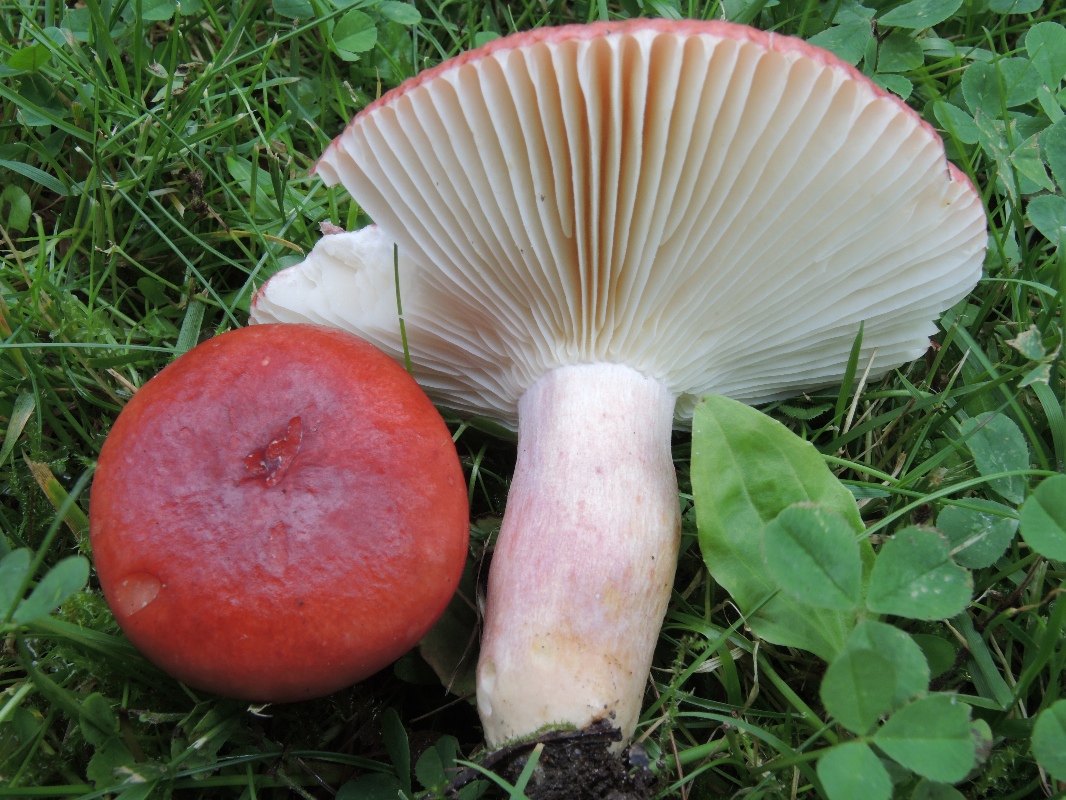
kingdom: Fungi
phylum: Basidiomycota
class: Agaricomycetes
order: Russulales
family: Russulaceae
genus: Russula
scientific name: Russula sanguinea
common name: blodrød skørhat
